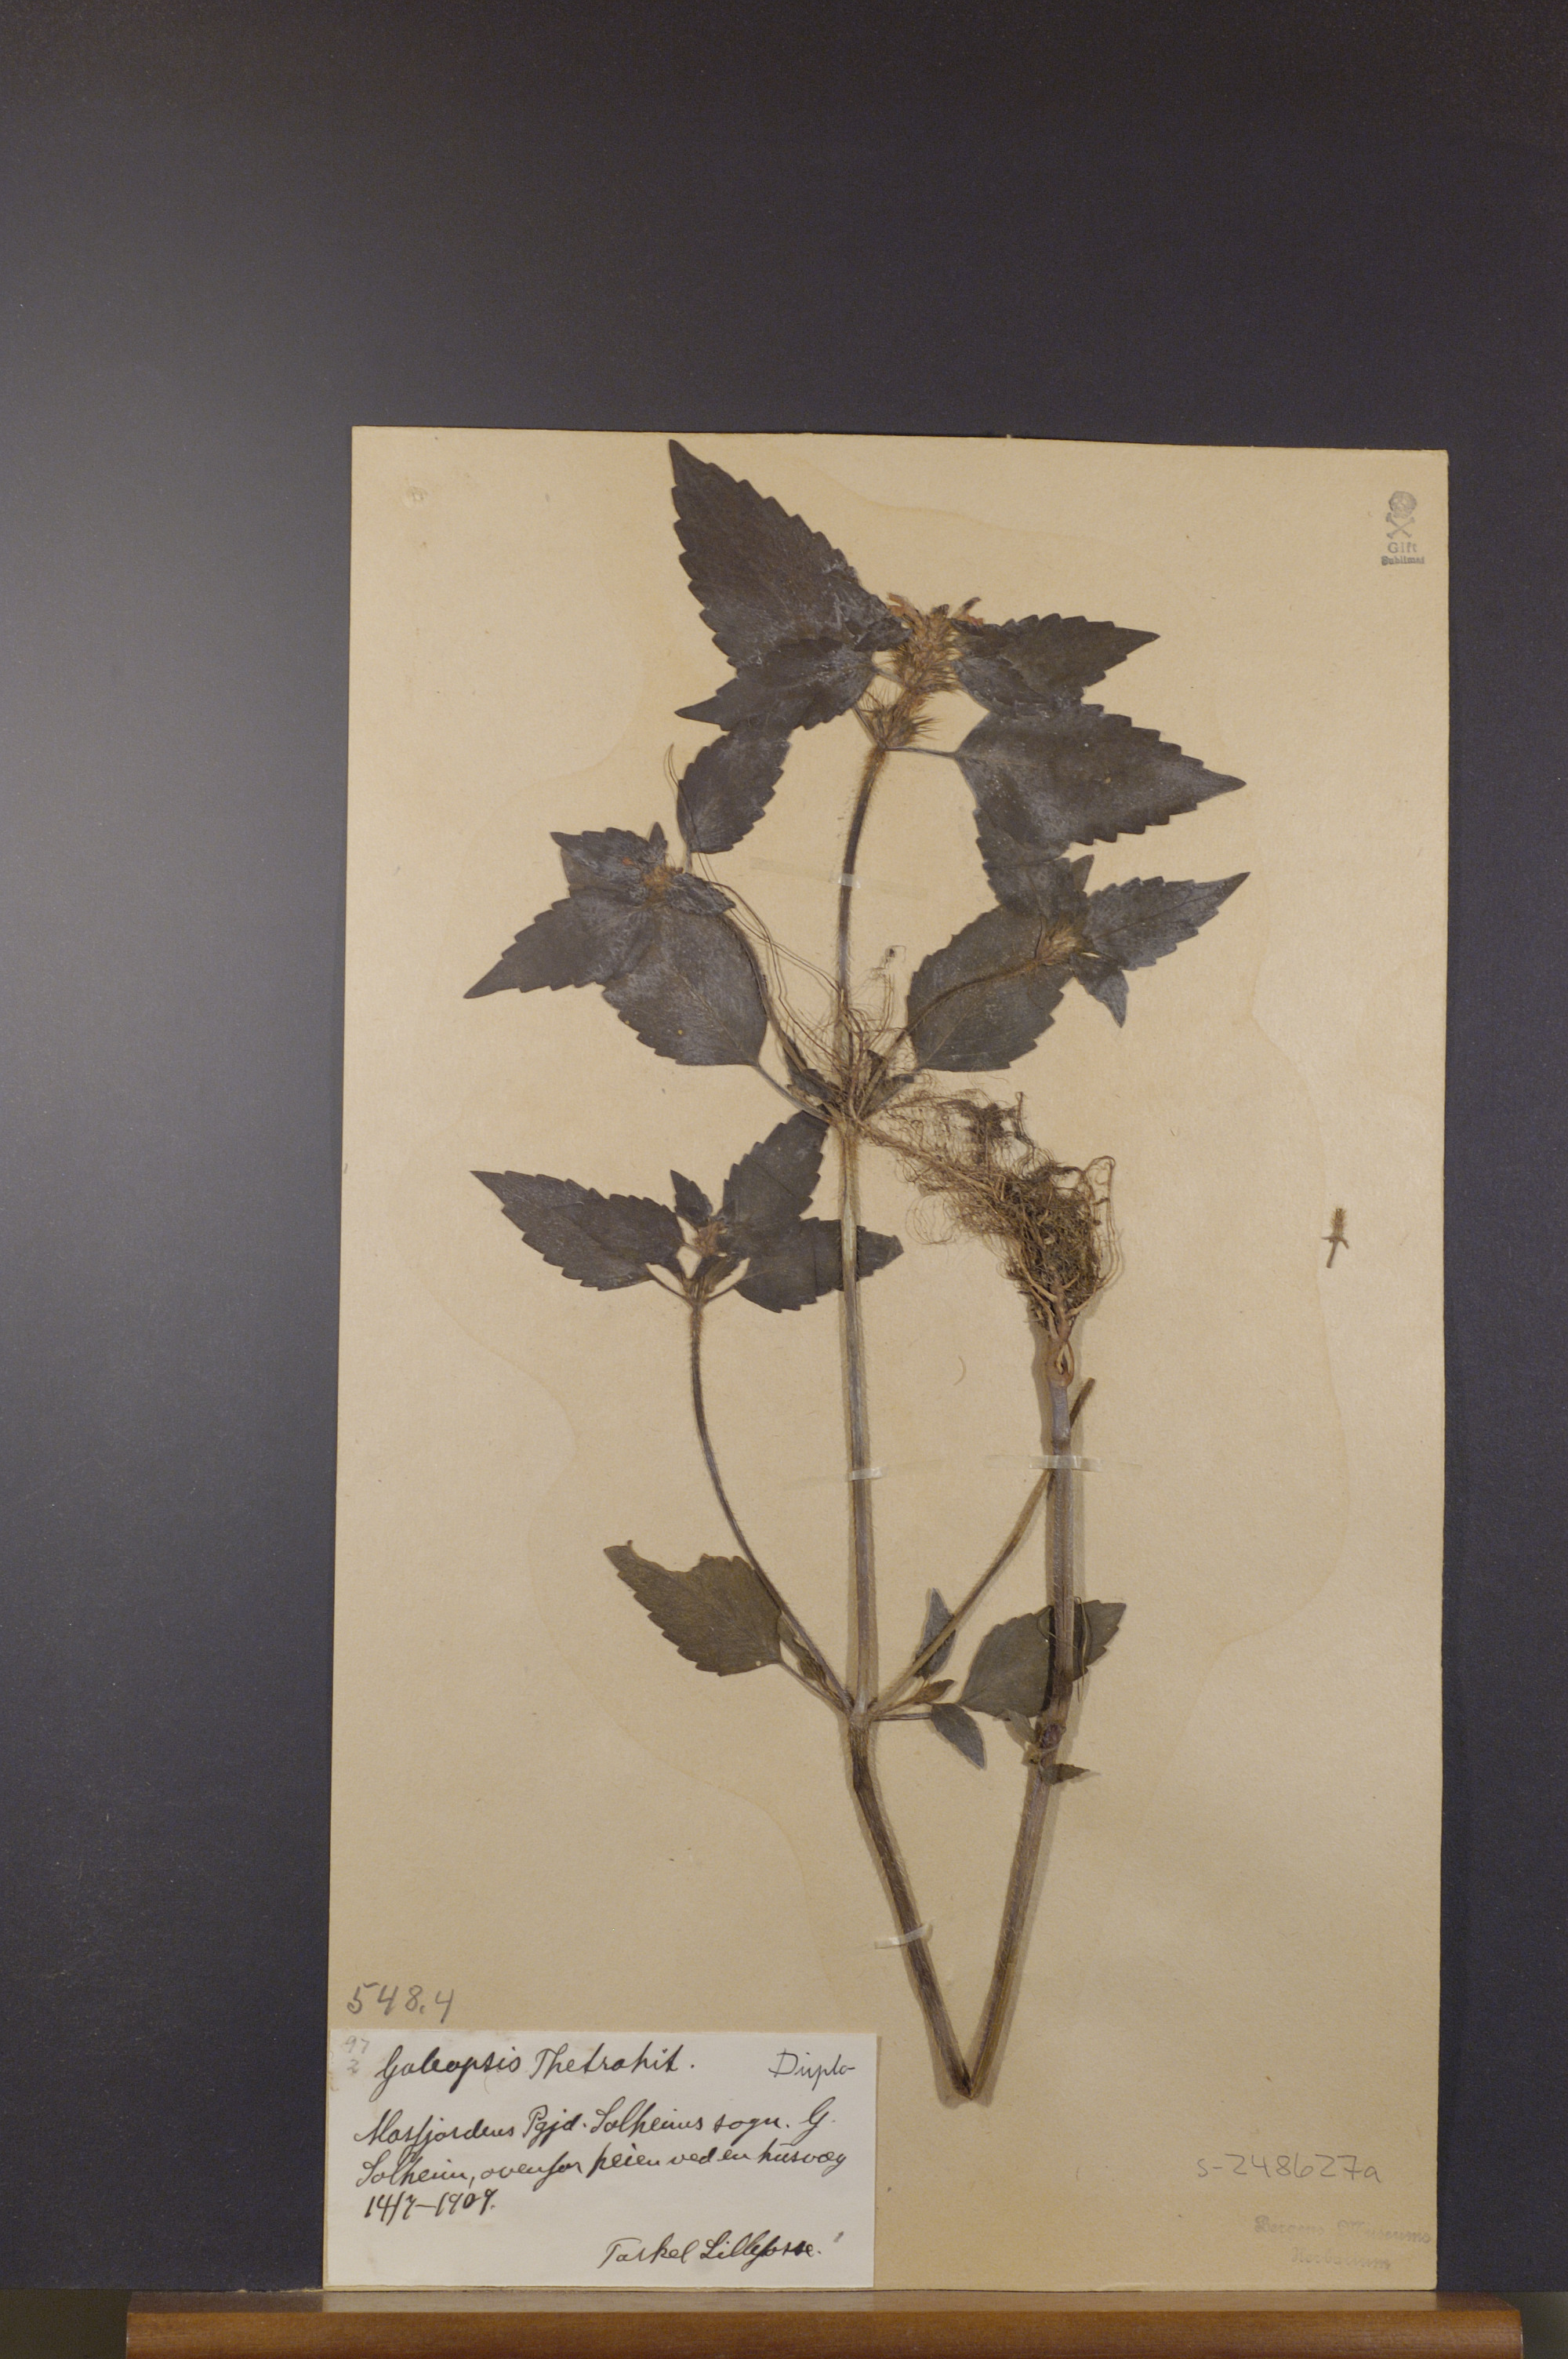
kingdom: Plantae
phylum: Tracheophyta
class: Magnoliopsida
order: Lamiales
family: Lamiaceae
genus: Galeopsis
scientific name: Galeopsis tetrahit
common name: Common hemp-nettle
